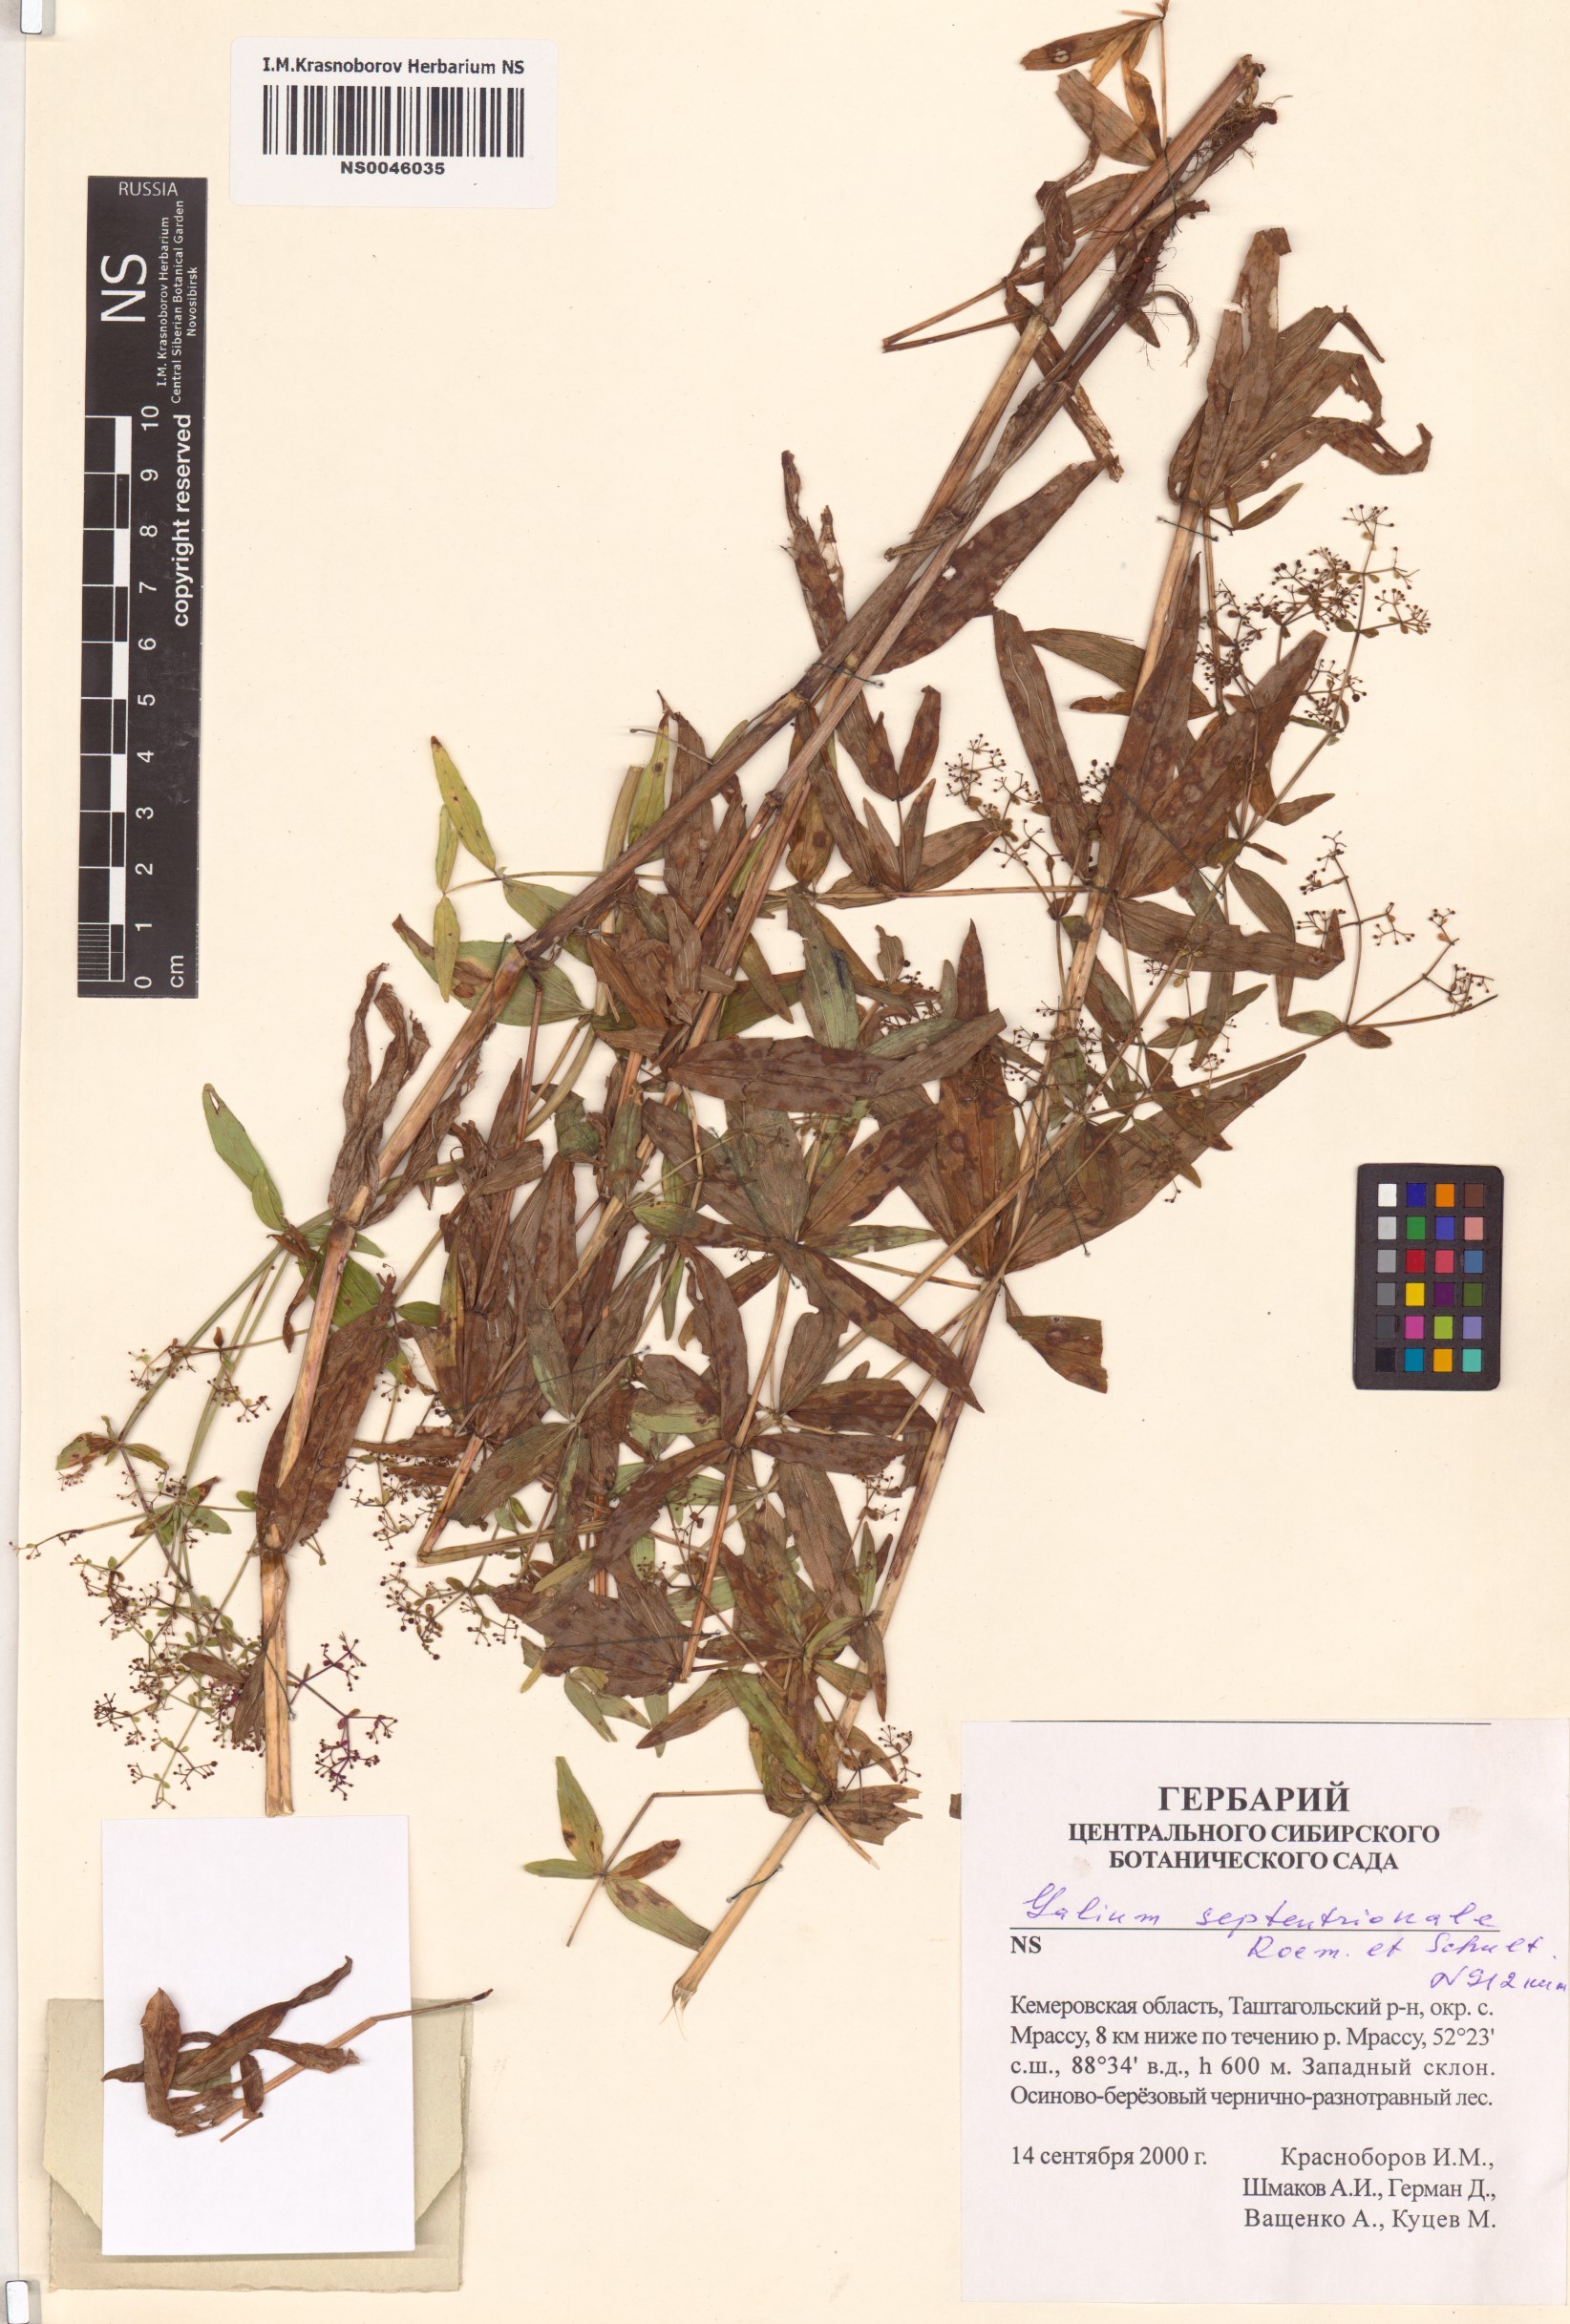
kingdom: Plantae
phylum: Tracheophyta
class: Magnoliopsida
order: Gentianales
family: Rubiaceae
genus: Galium
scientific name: Galium boreale
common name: Northern bedstraw
